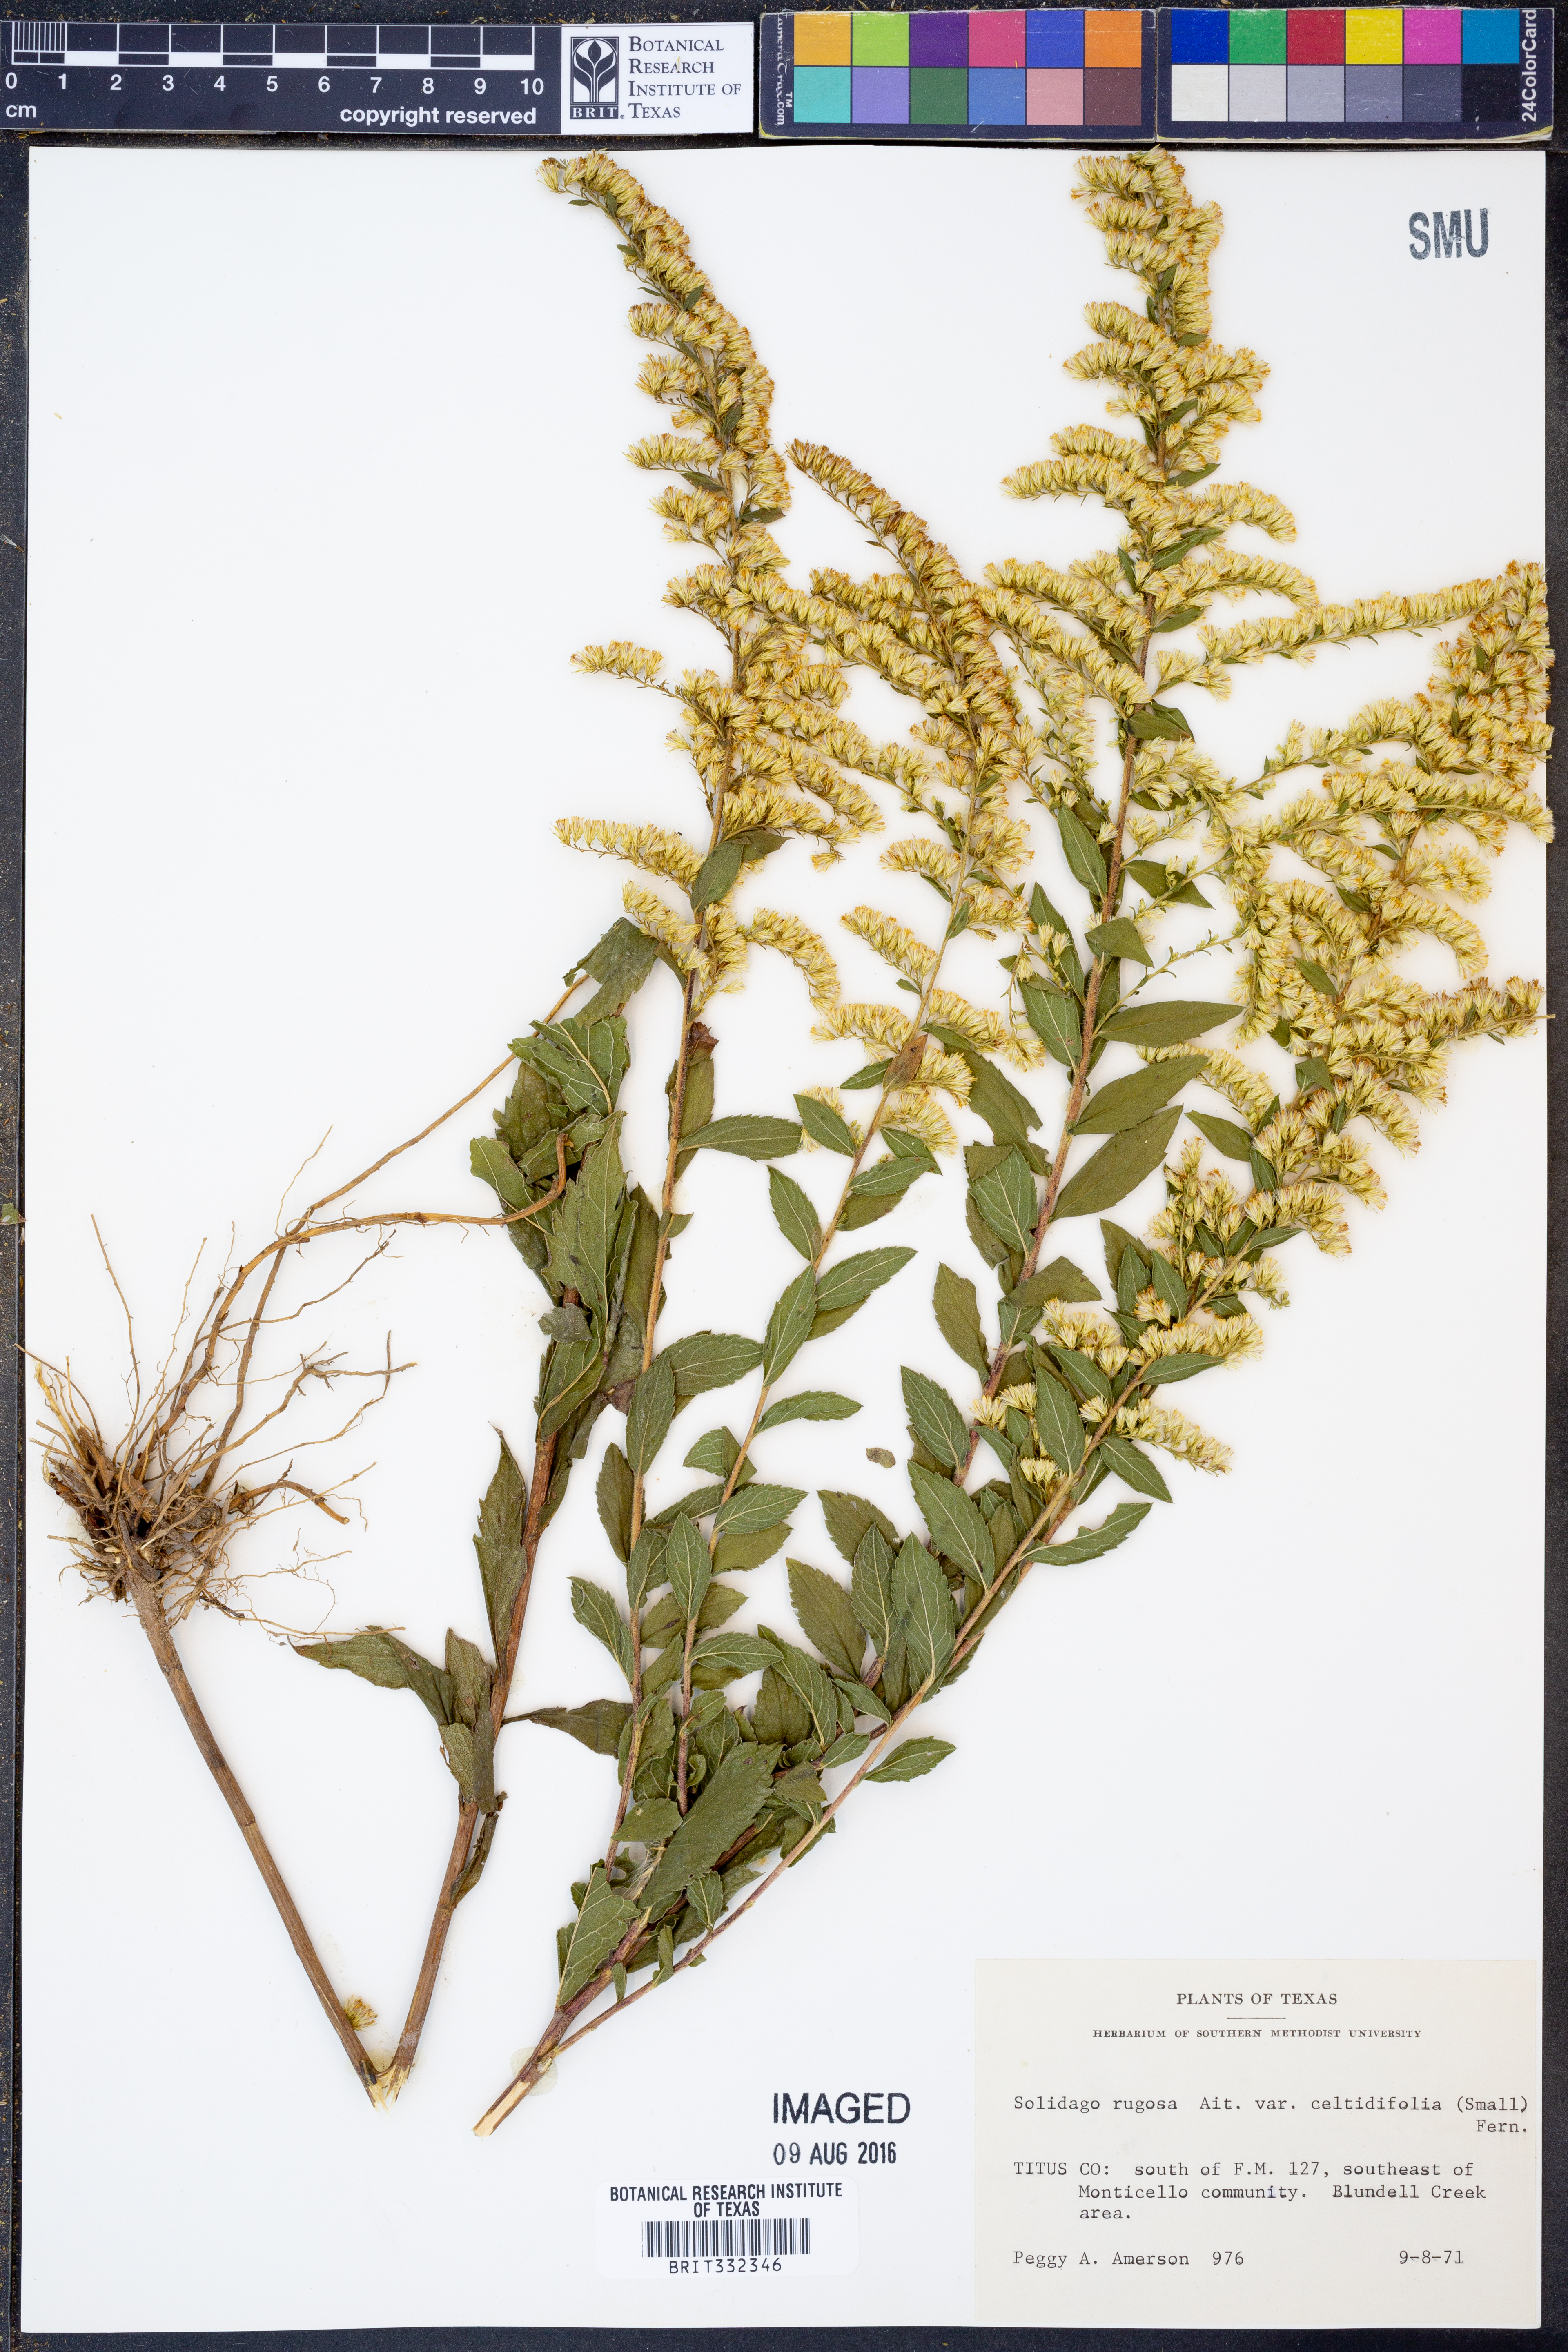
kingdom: Plantae
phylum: Tracheophyta
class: Magnoliopsida
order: Asterales
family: Asteraceae
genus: Solidago
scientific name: Solidago rugosa
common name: Rough-stemmed goldenrod
